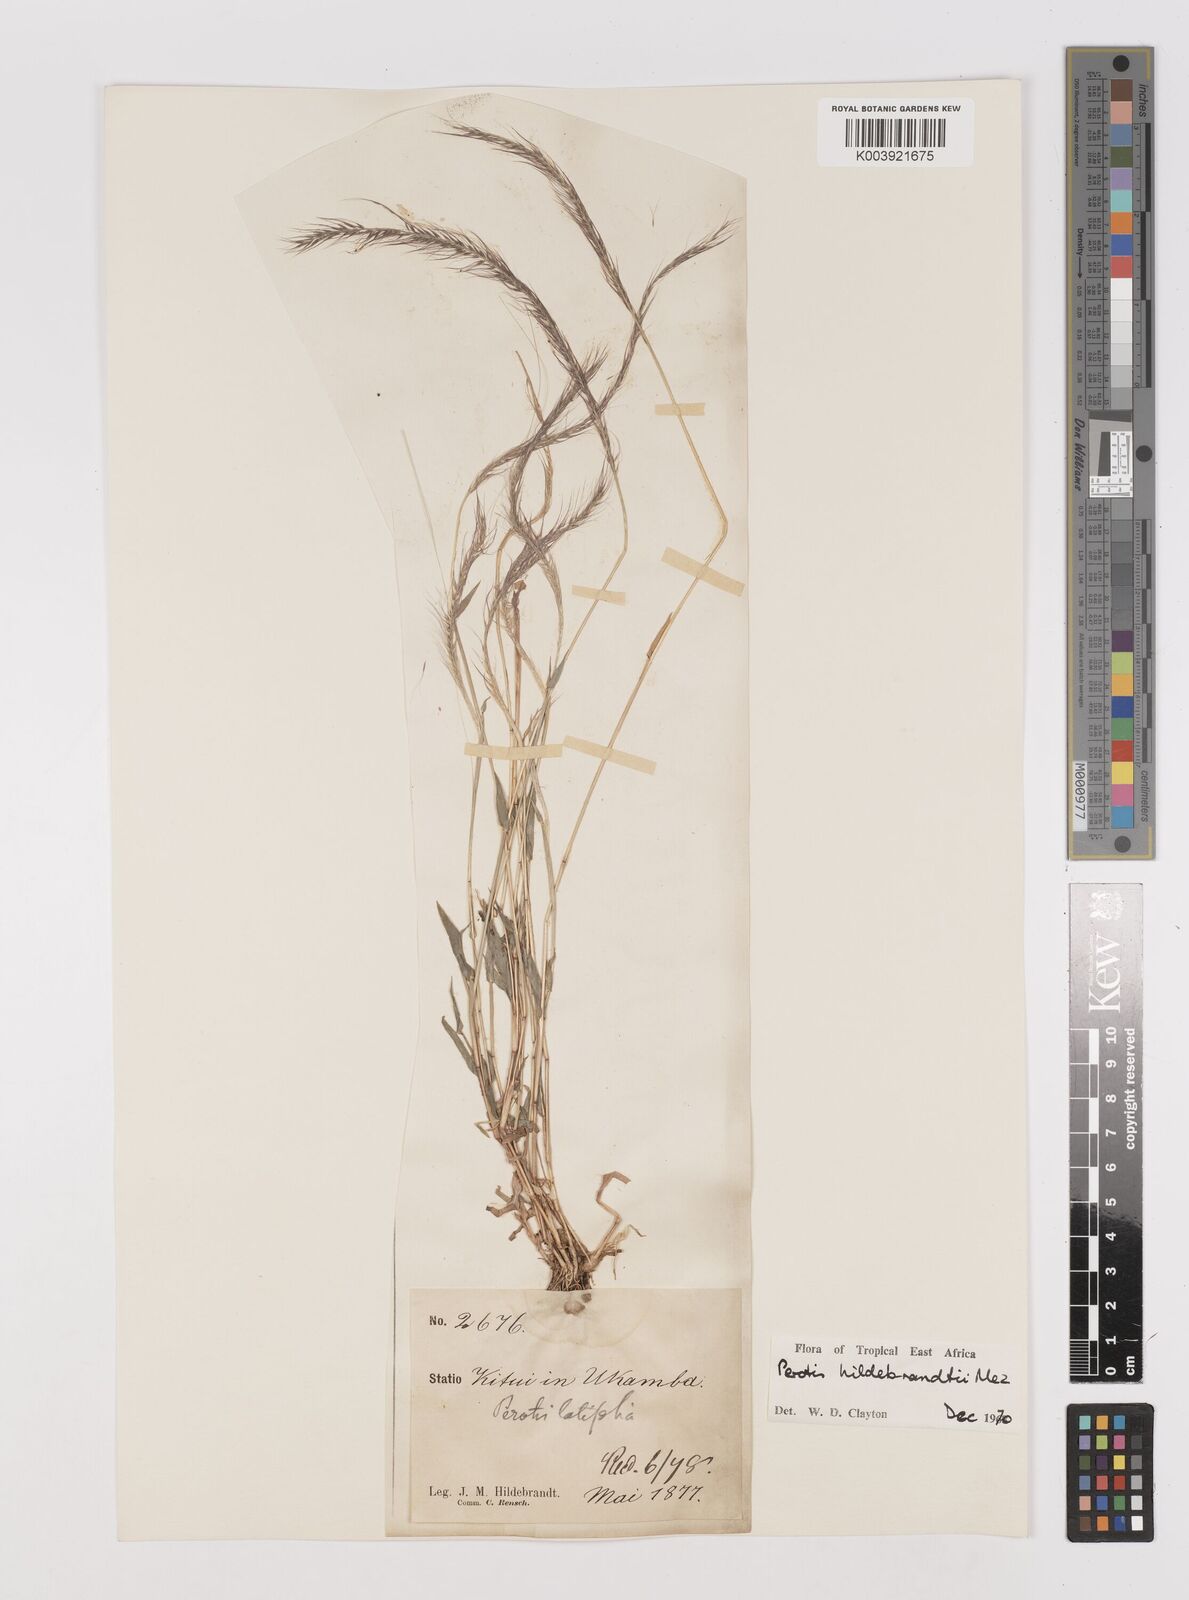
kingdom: Plantae
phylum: Tracheophyta
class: Liliopsida
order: Poales
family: Poaceae
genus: Perotis
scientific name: Perotis hildebrandtii
